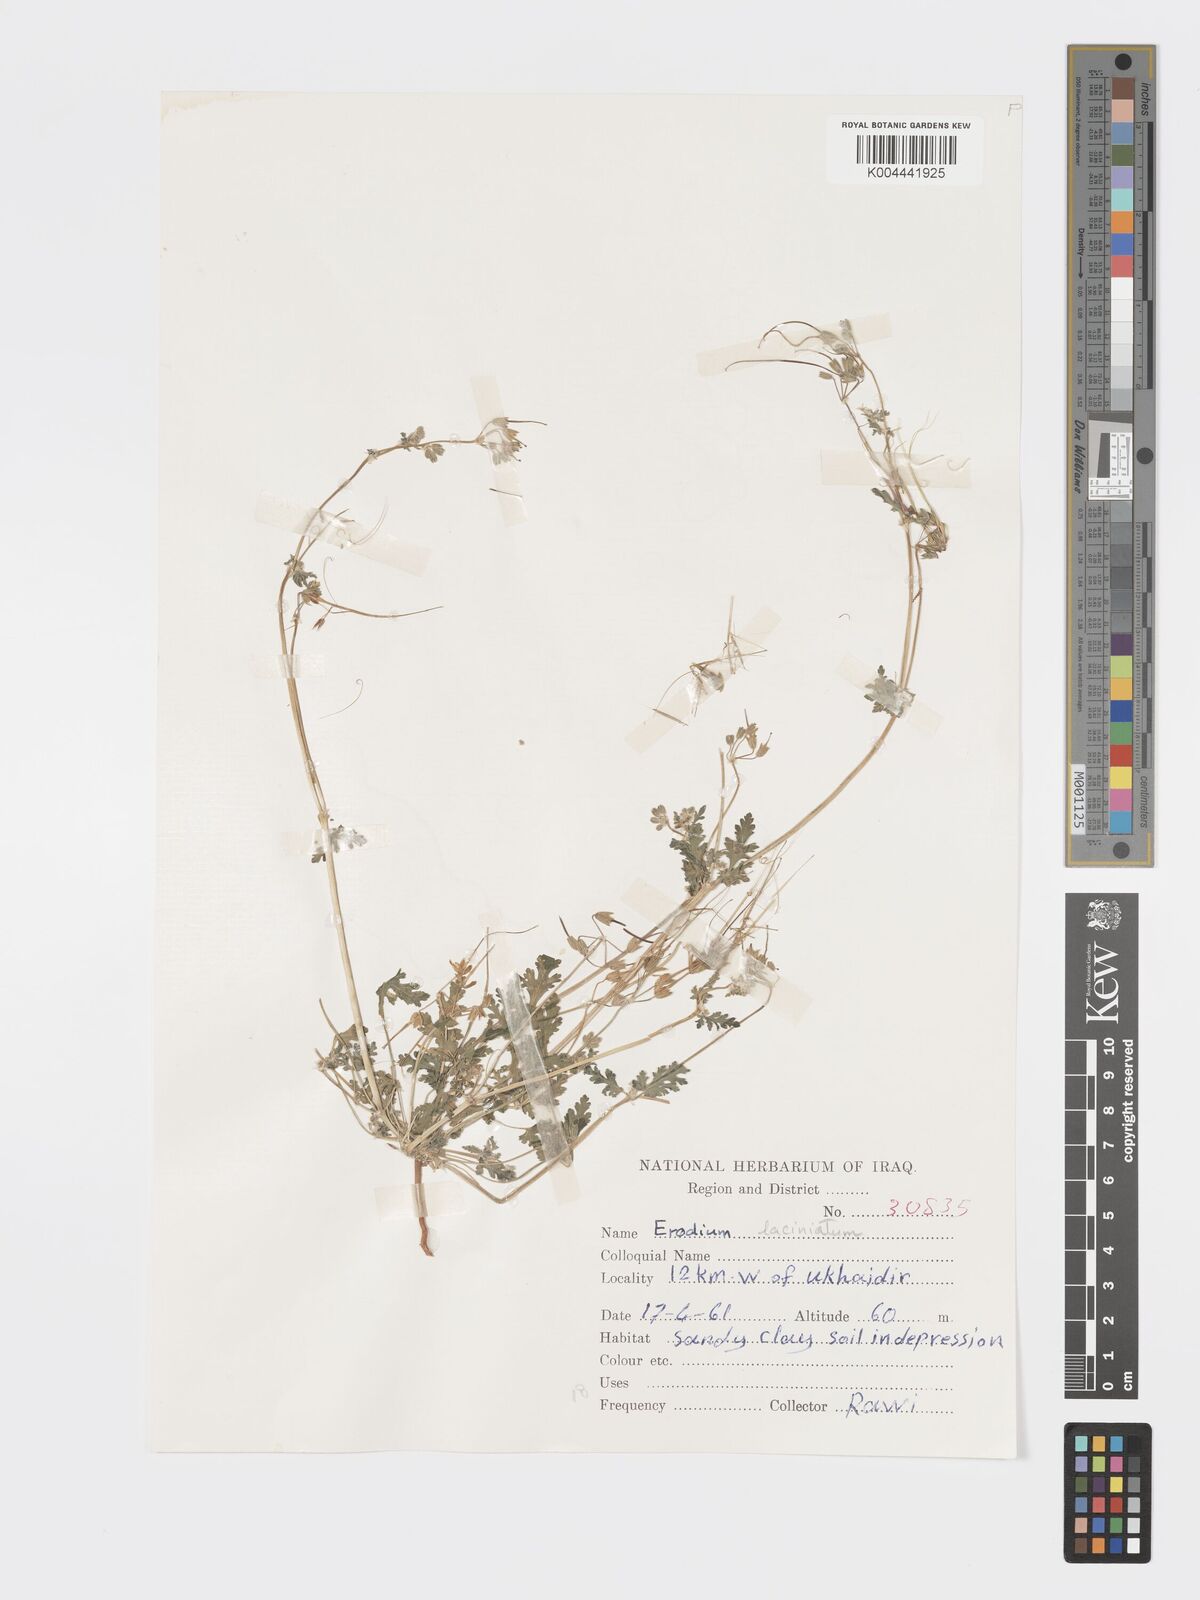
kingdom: Plantae
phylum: Tracheophyta
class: Magnoliopsida
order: Geraniales
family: Geraniaceae
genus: Erodium
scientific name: Erodium laciniatum
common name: Cutleaf stork's bill
